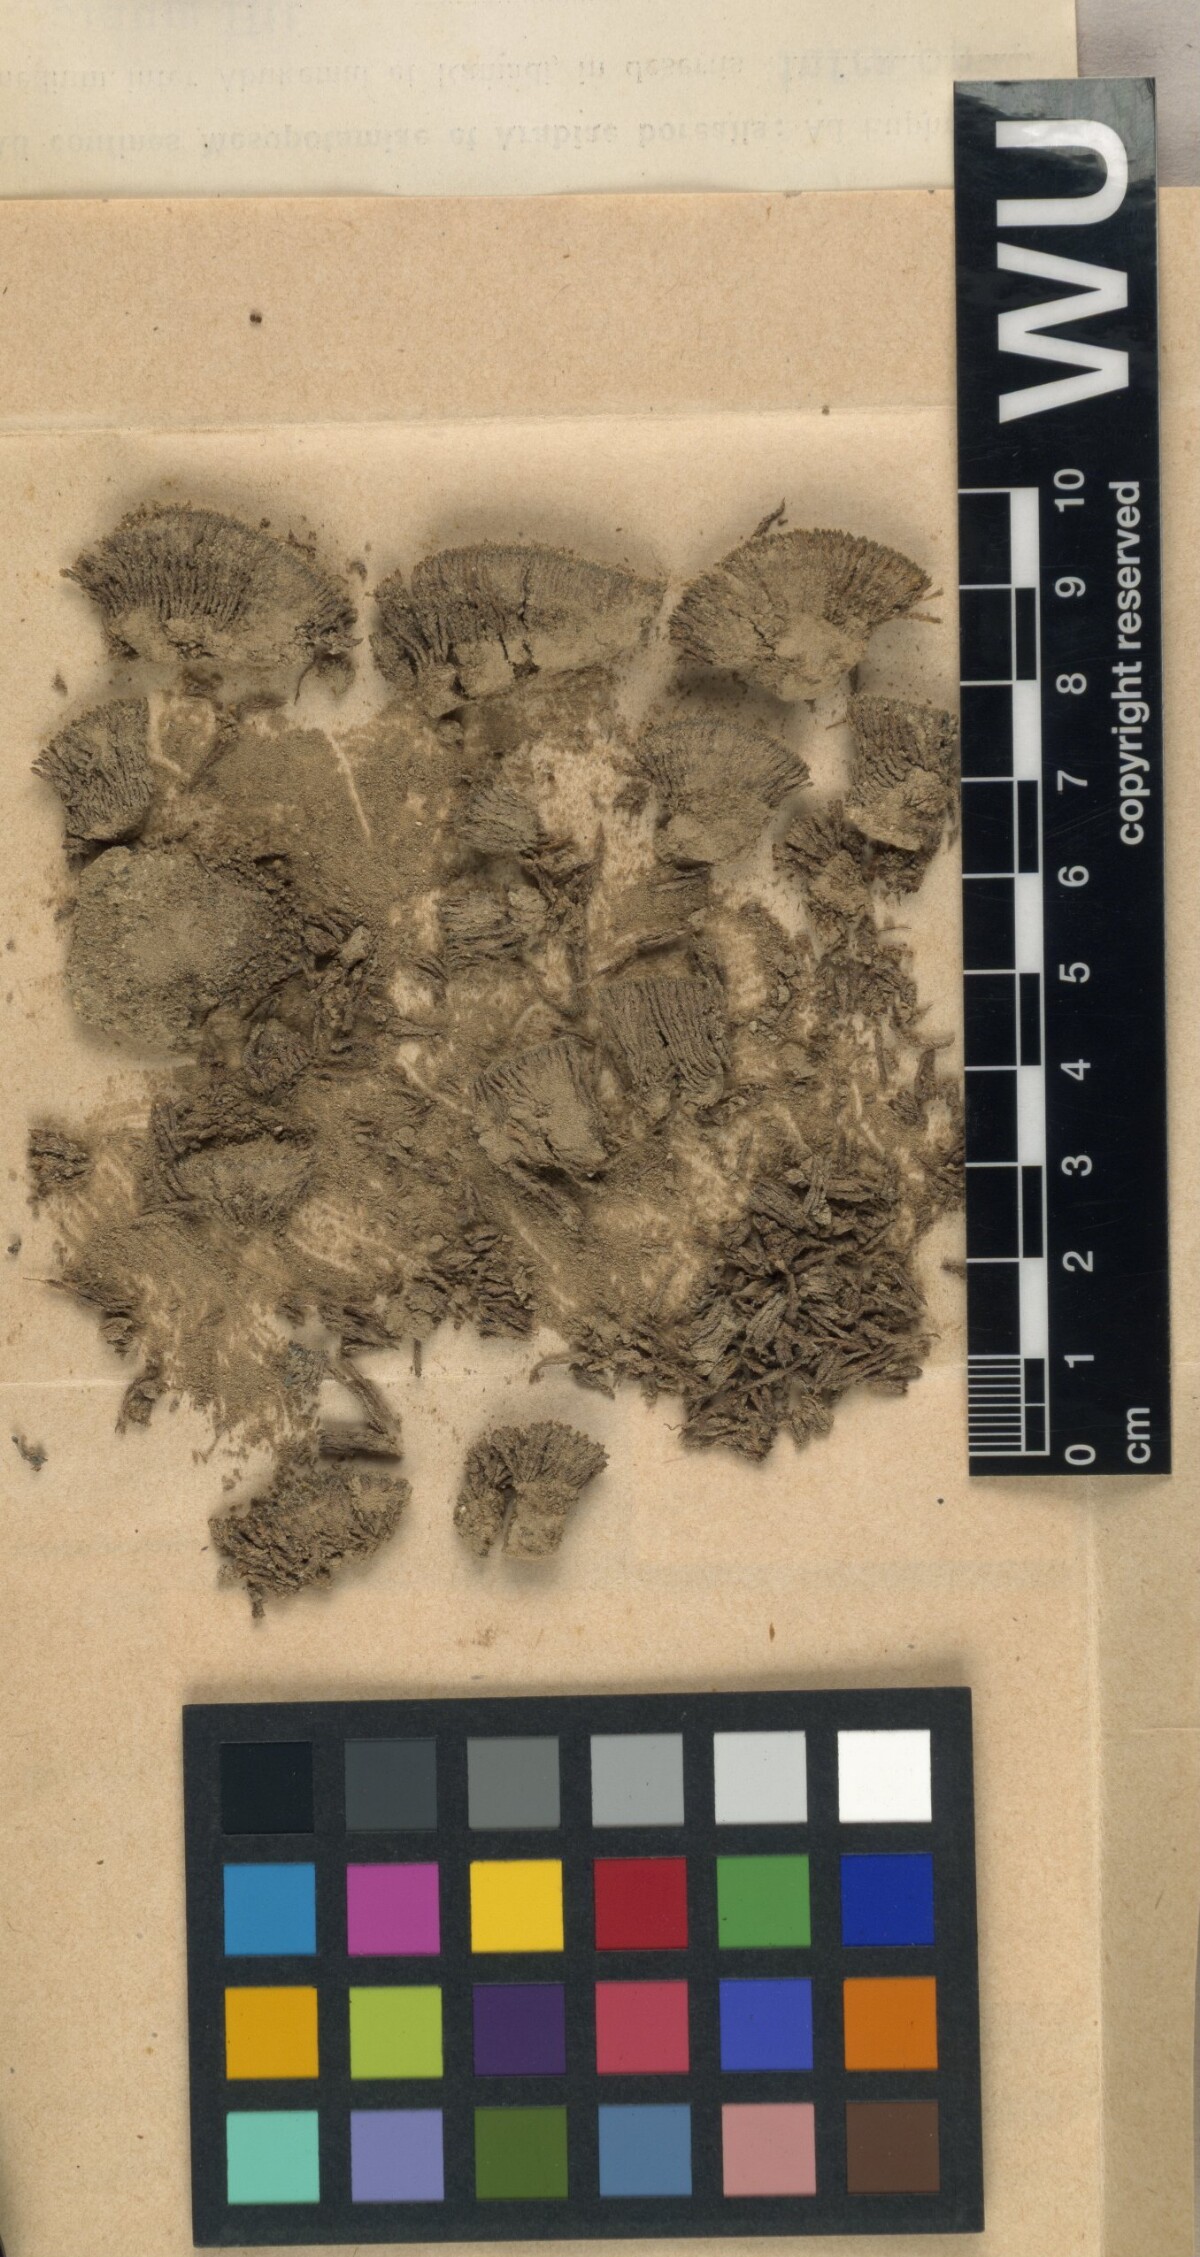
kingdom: Plantae
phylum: Bryophyta
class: Bryopsida
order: Grimmiales
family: Grimmiaceae
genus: Grimmia
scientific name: Grimmia capillata
